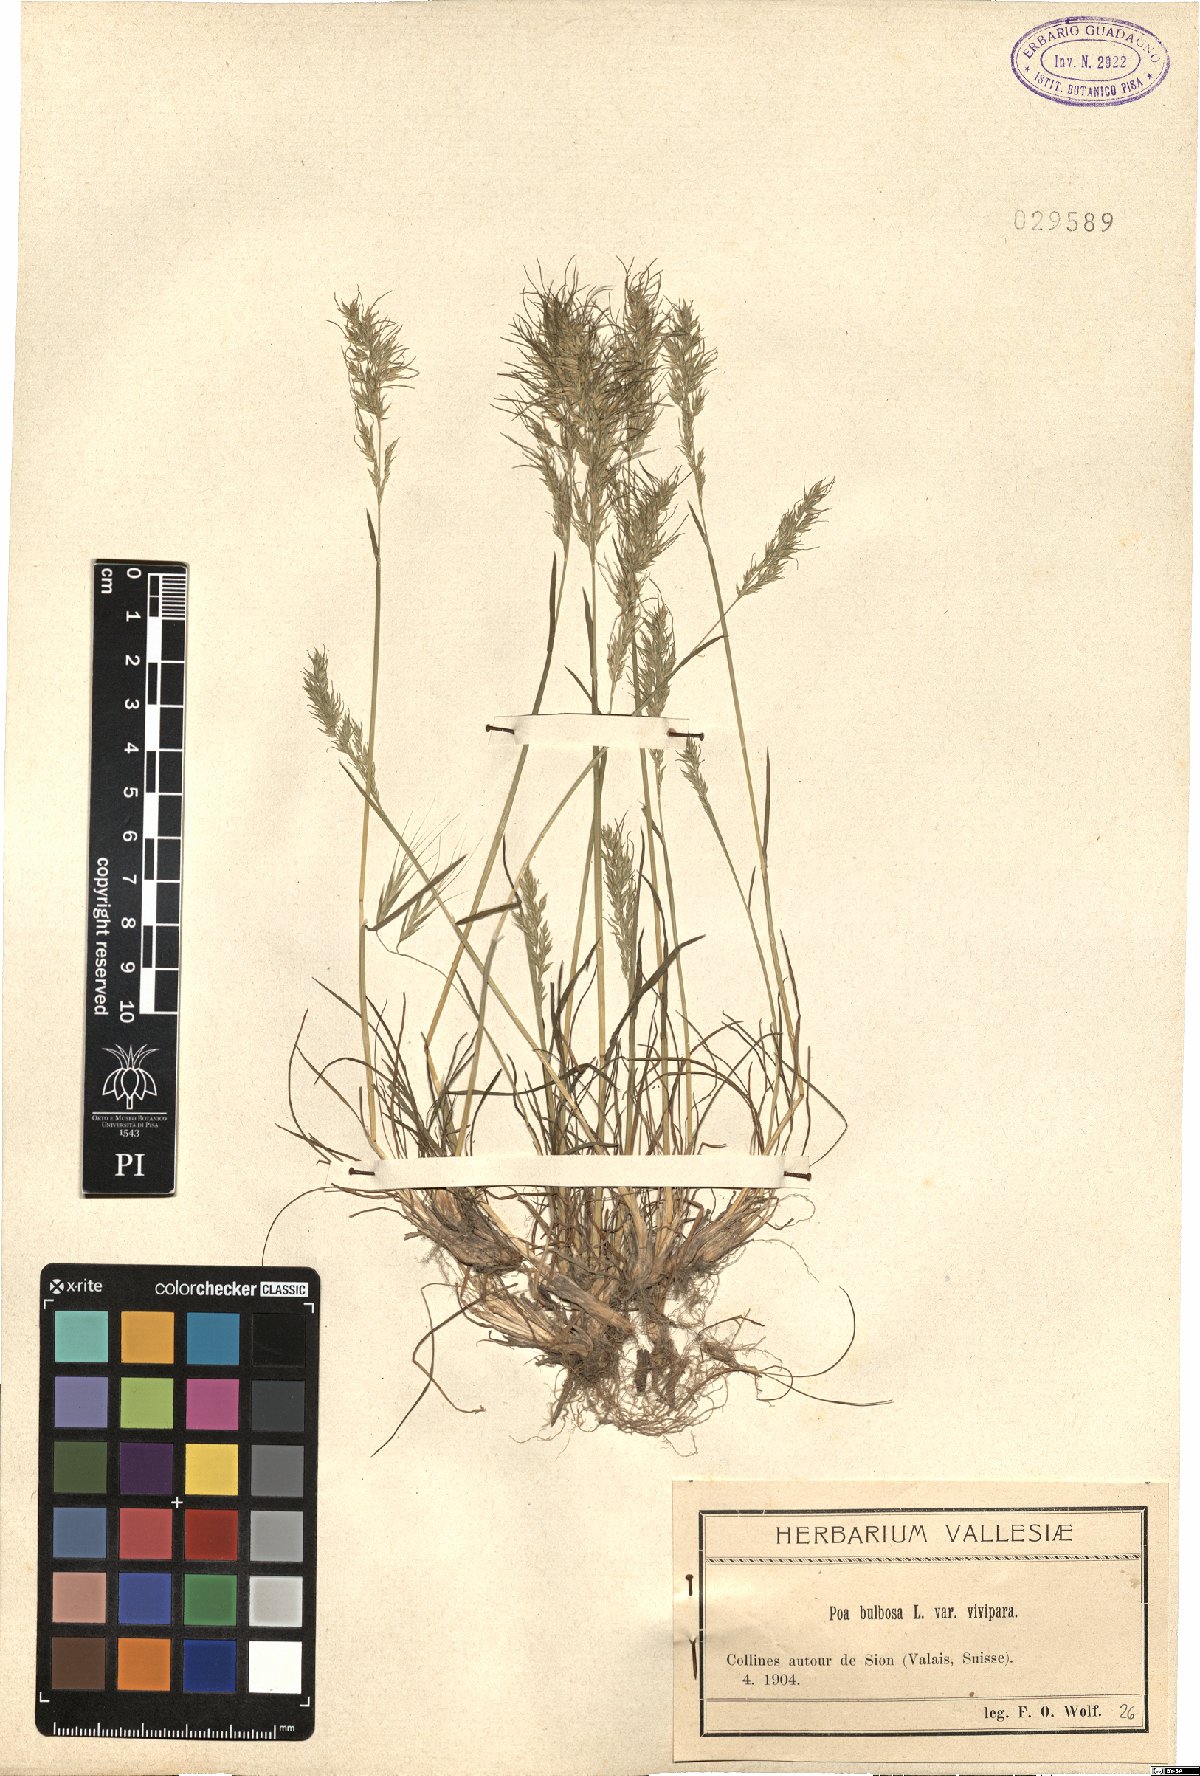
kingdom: Plantae
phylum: Tracheophyta
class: Liliopsida
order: Poales
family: Poaceae
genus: Poa
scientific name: Poa bulbosa
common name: Bulbous bluegrass
